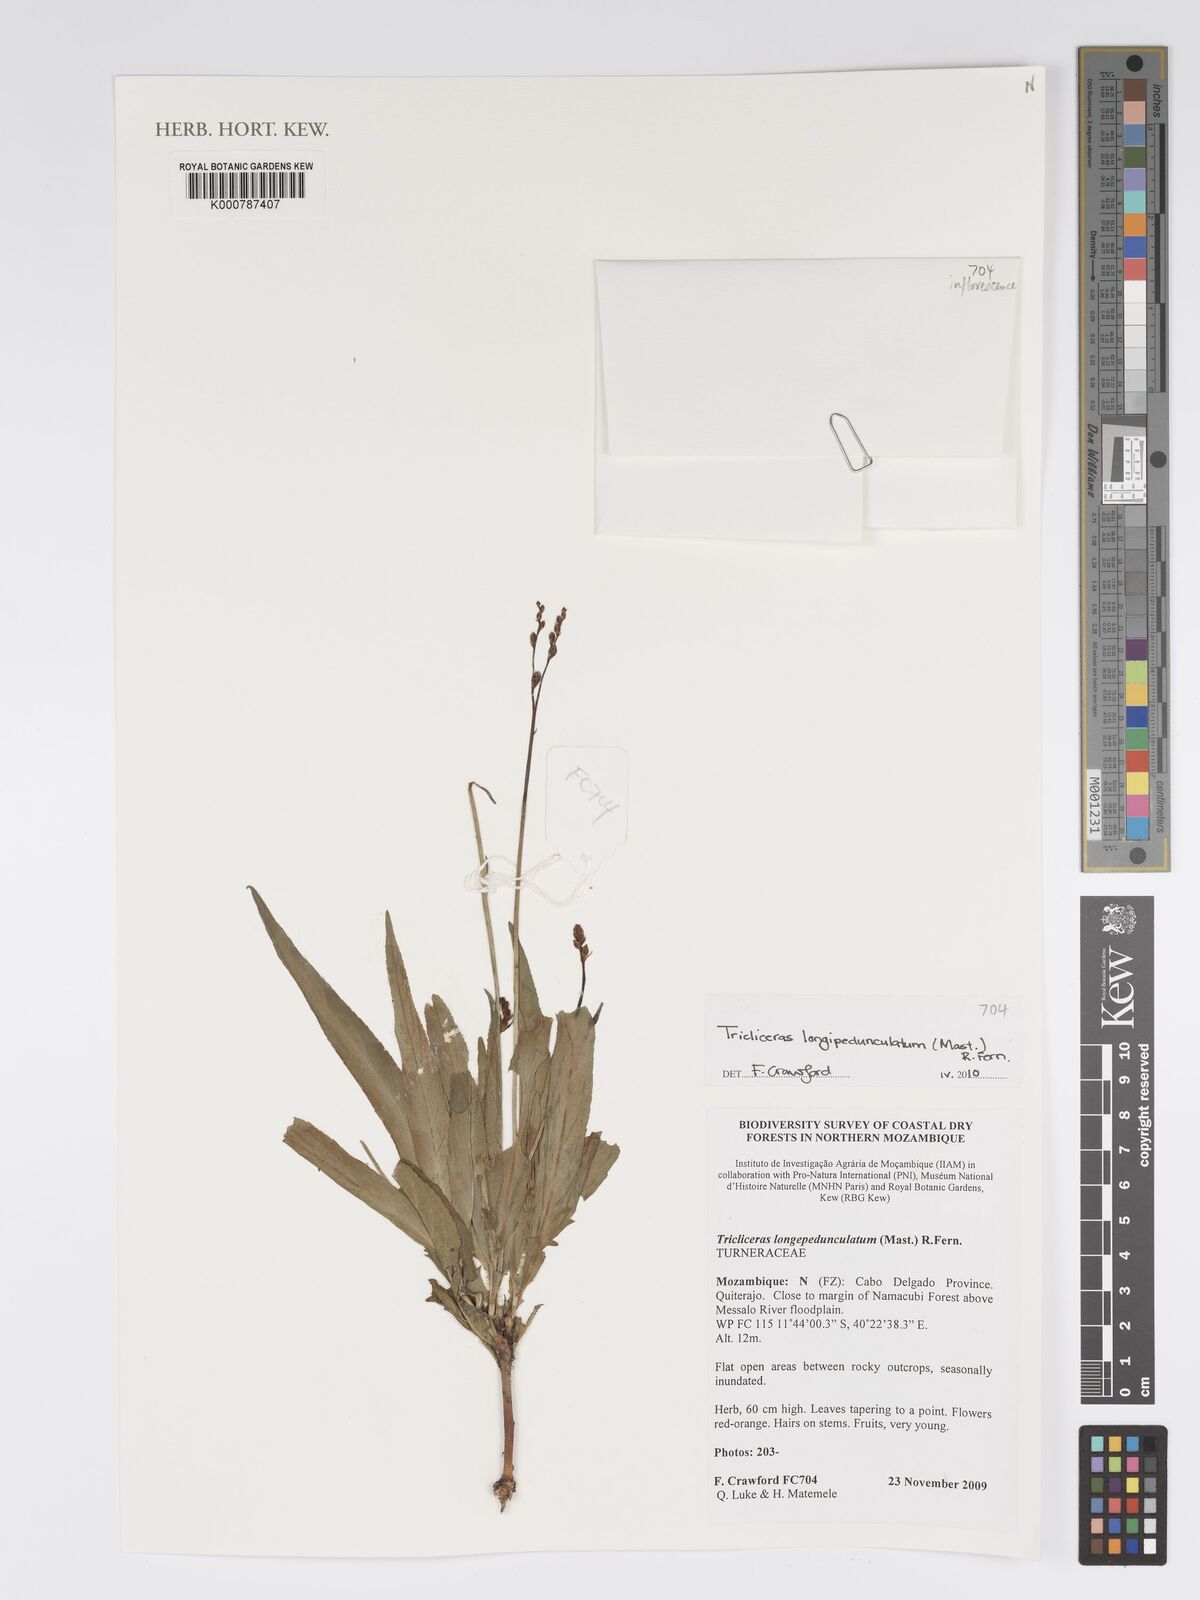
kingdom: Plantae
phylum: Tracheophyta
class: Magnoliopsida
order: Malpighiales
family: Turneraceae
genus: Tricliceras
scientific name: Tricliceras longepedunculatum
